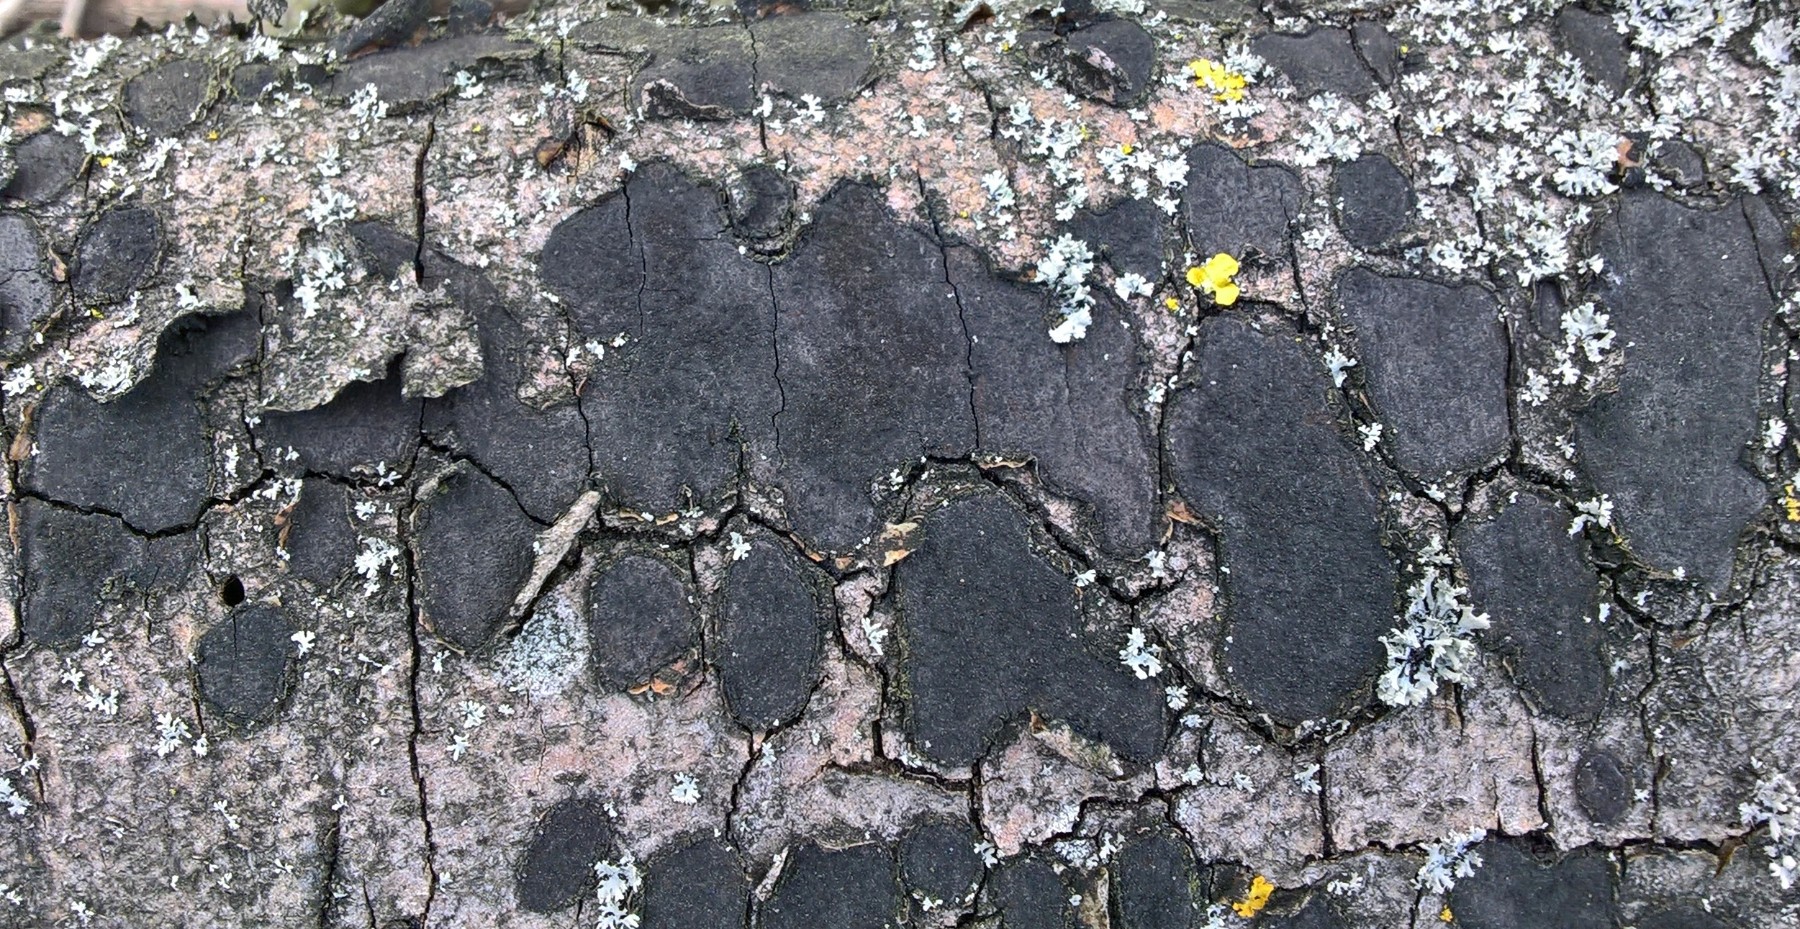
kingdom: Fungi
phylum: Ascomycota
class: Sordariomycetes
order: Xylariales
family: Graphostromataceae
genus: Biscogniauxia
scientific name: Biscogniauxia nummularia
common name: bøge-kulskive
